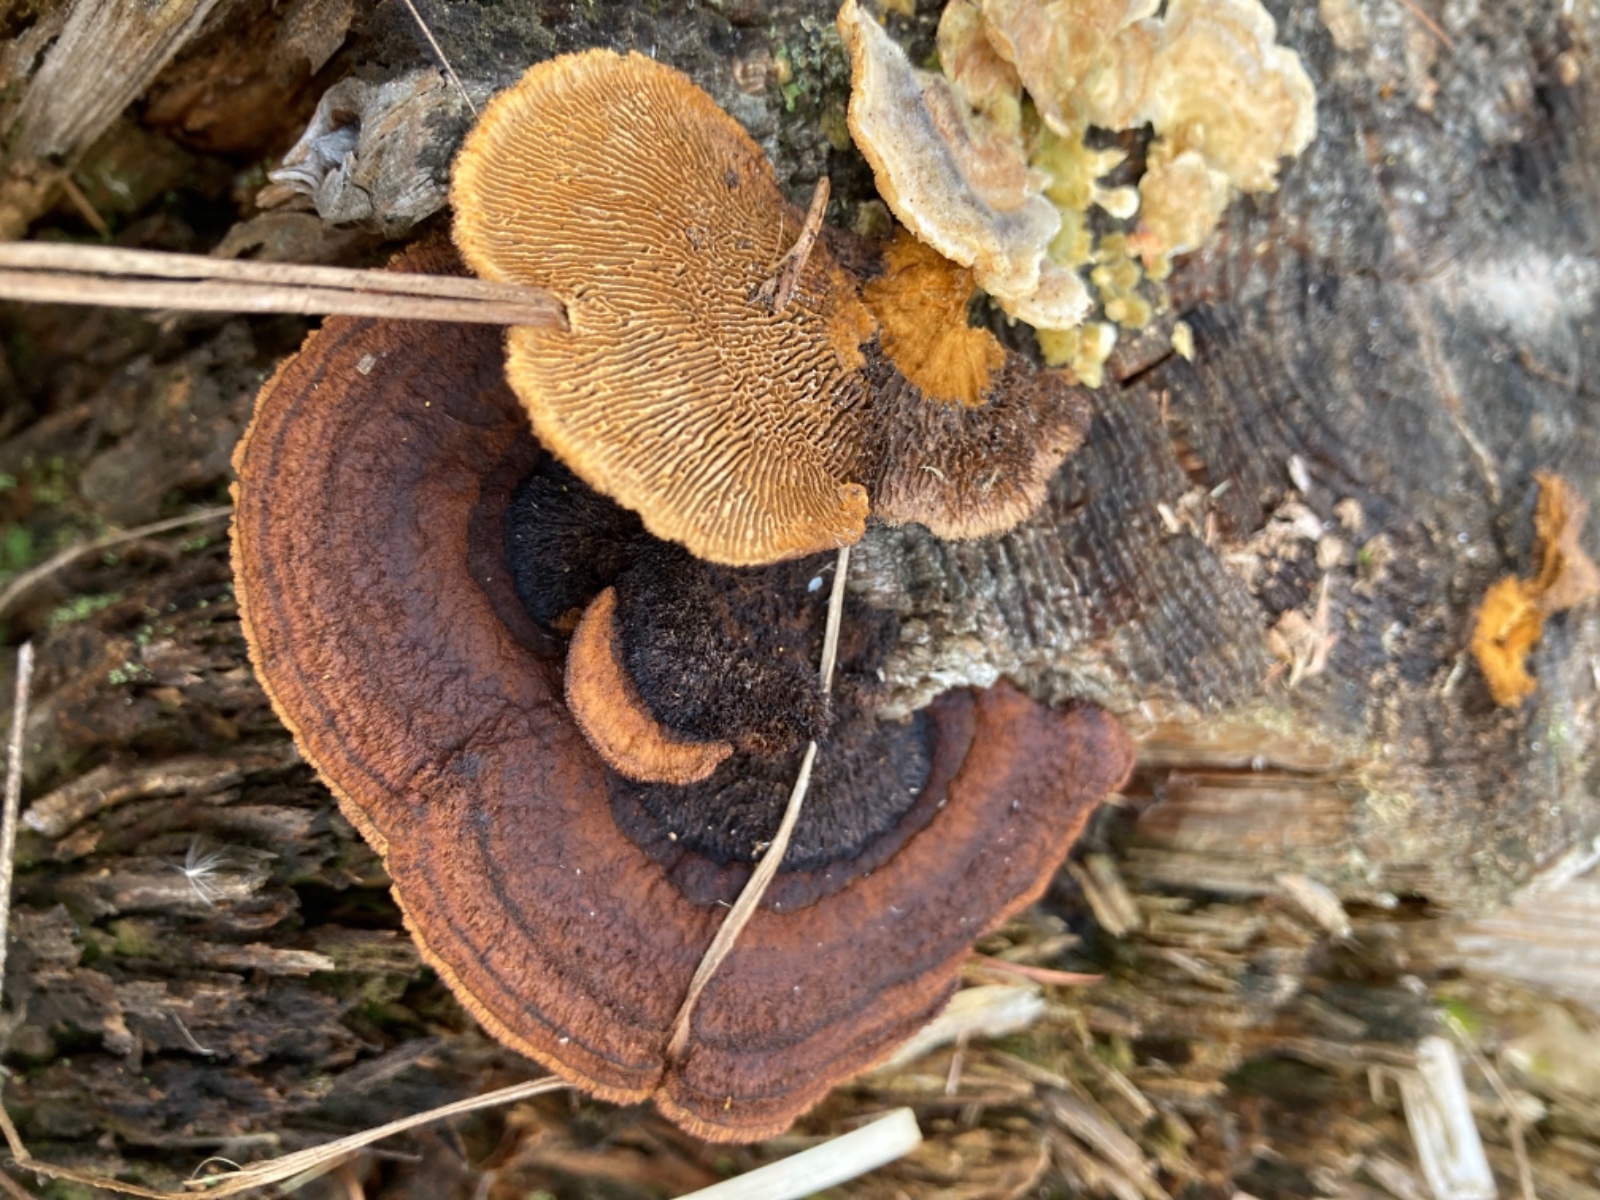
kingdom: Fungi
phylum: Basidiomycota
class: Agaricomycetes
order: Gloeophyllales
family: Gloeophyllaceae
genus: Gloeophyllum
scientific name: Gloeophyllum sepiarium
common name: fyrre-korkhat
